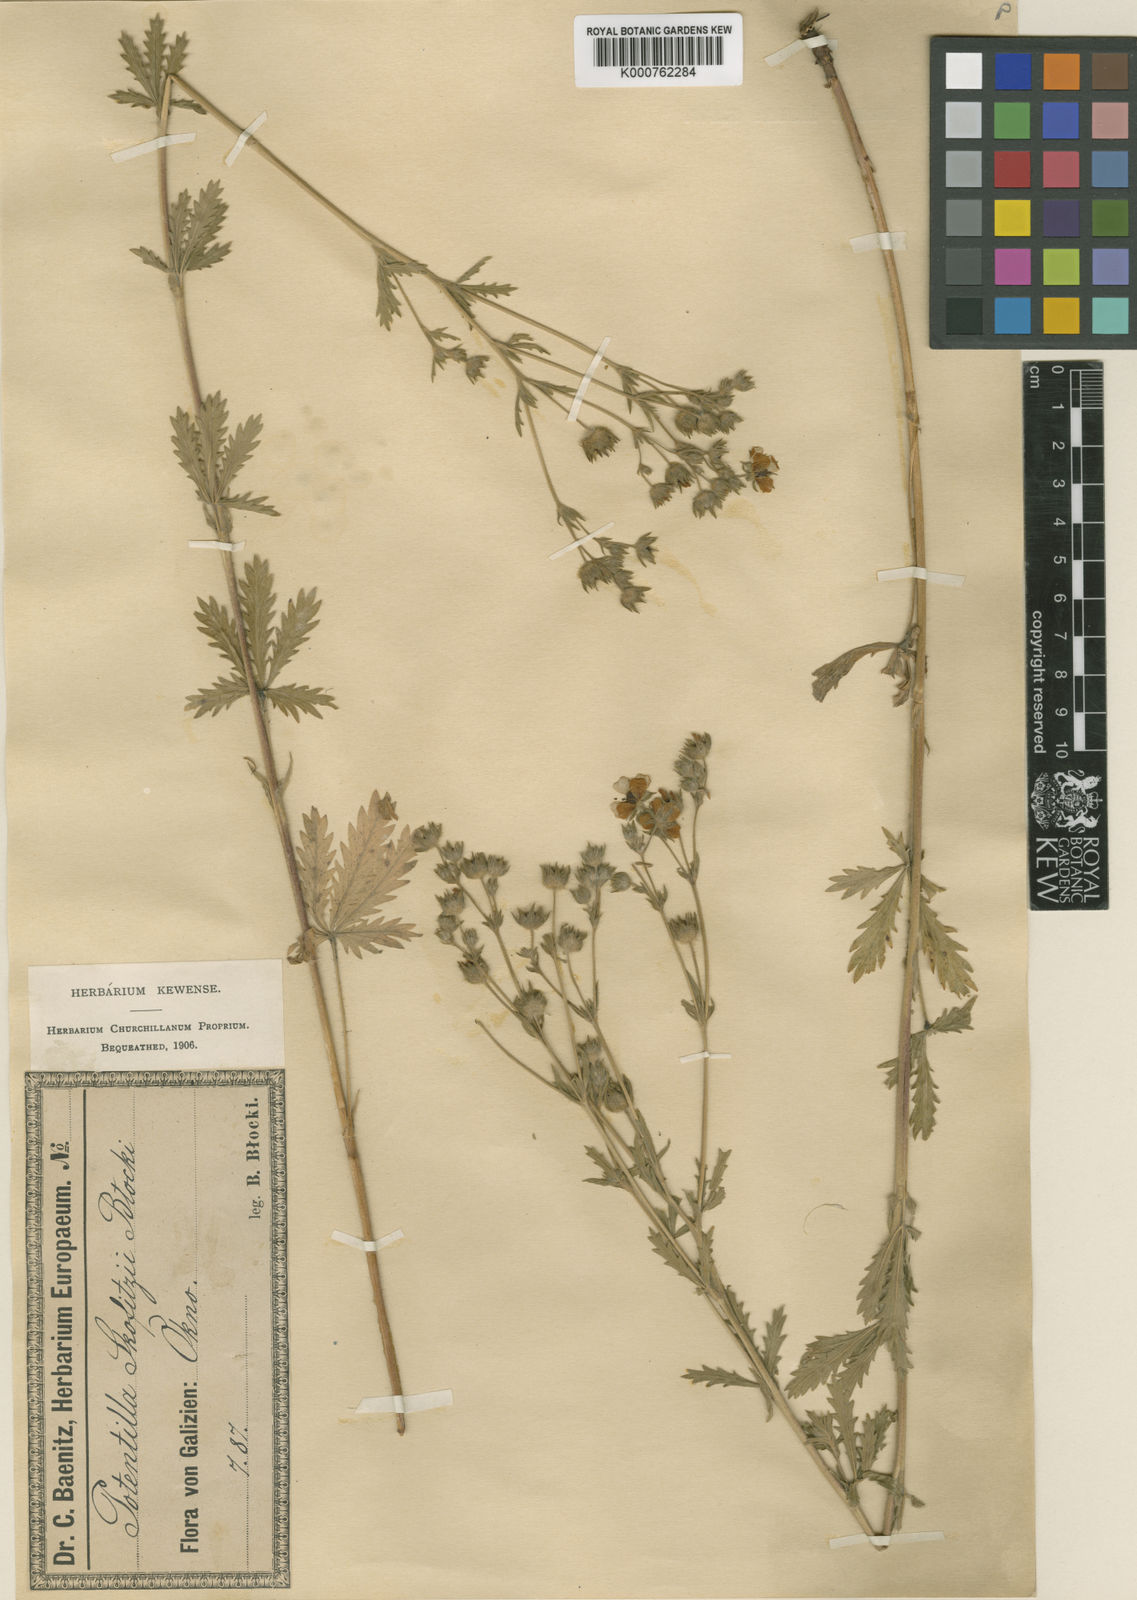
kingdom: Plantae
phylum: Tracheophyta
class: Magnoliopsida
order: Rosales
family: Rosaceae
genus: Potentilla
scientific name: Potentilla recta
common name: Sulphur cinquefoil
